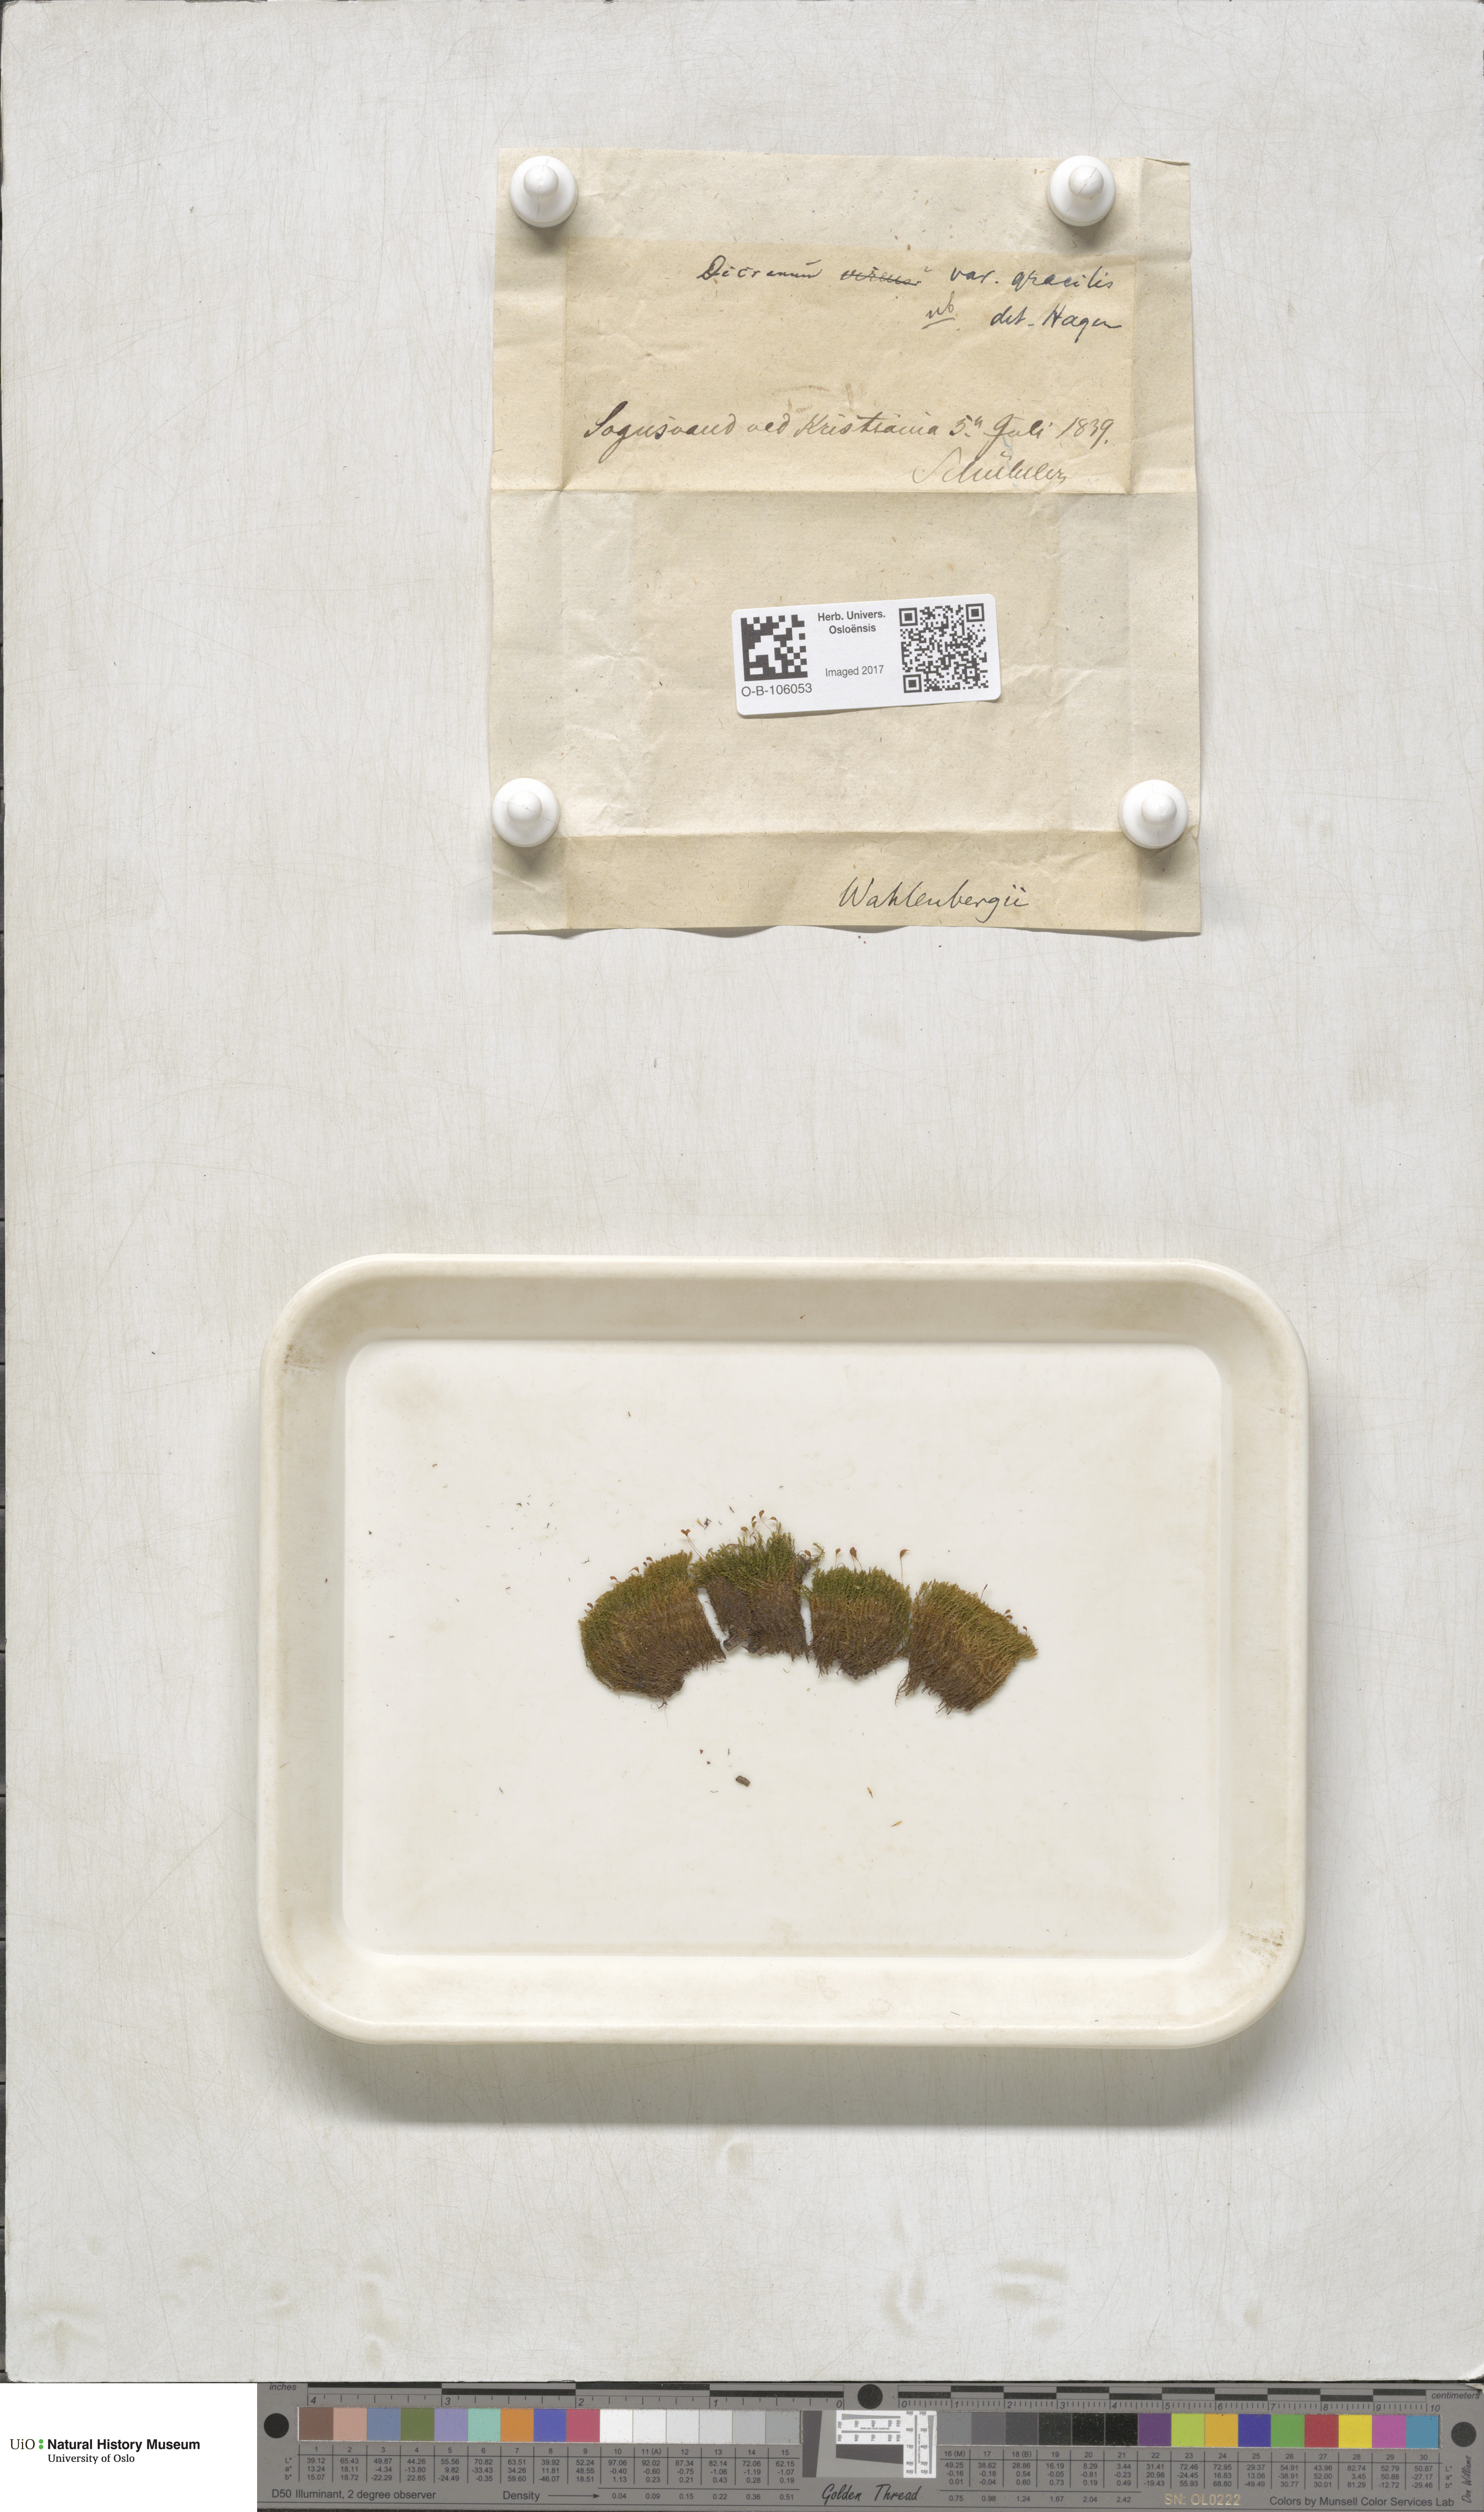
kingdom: Plantae
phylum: Bryophyta
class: Bryopsida
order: Dicranales
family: Rhabdoweisiaceae
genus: Brideliella
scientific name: Brideliella wahlenbergii
